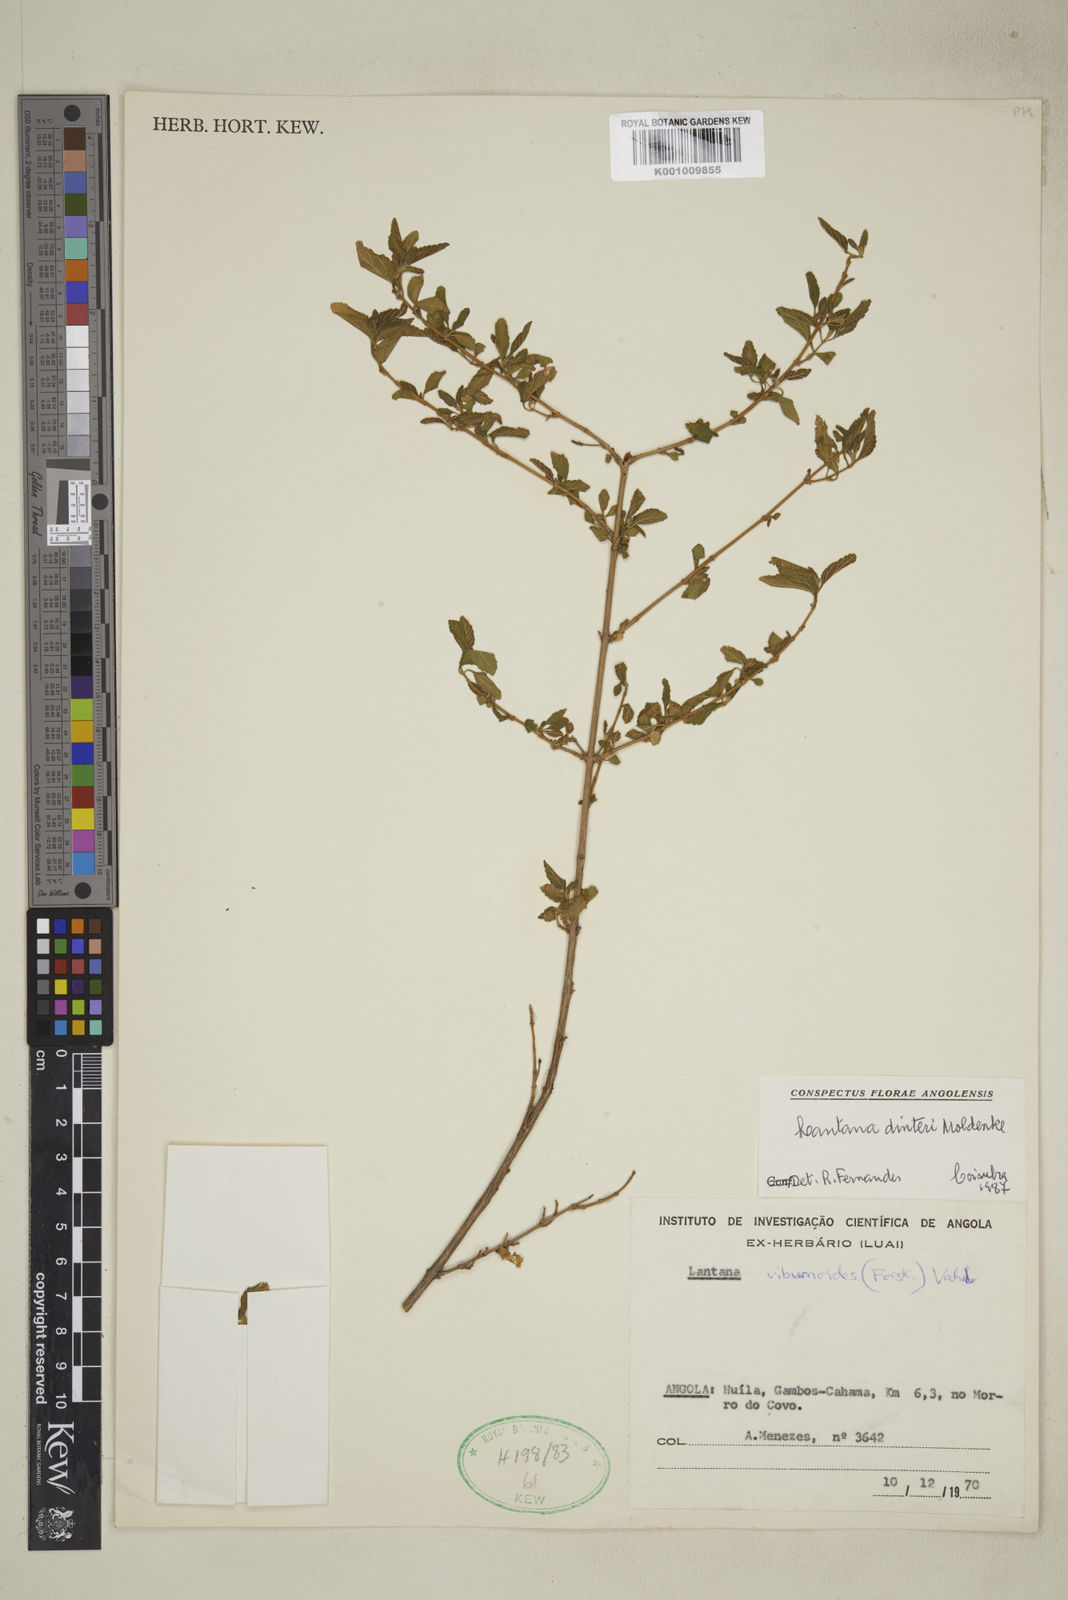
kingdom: Plantae
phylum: Tracheophyta
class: Magnoliopsida
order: Lamiales
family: Verbenaceae
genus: Lantana
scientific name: Lantana dinteri
